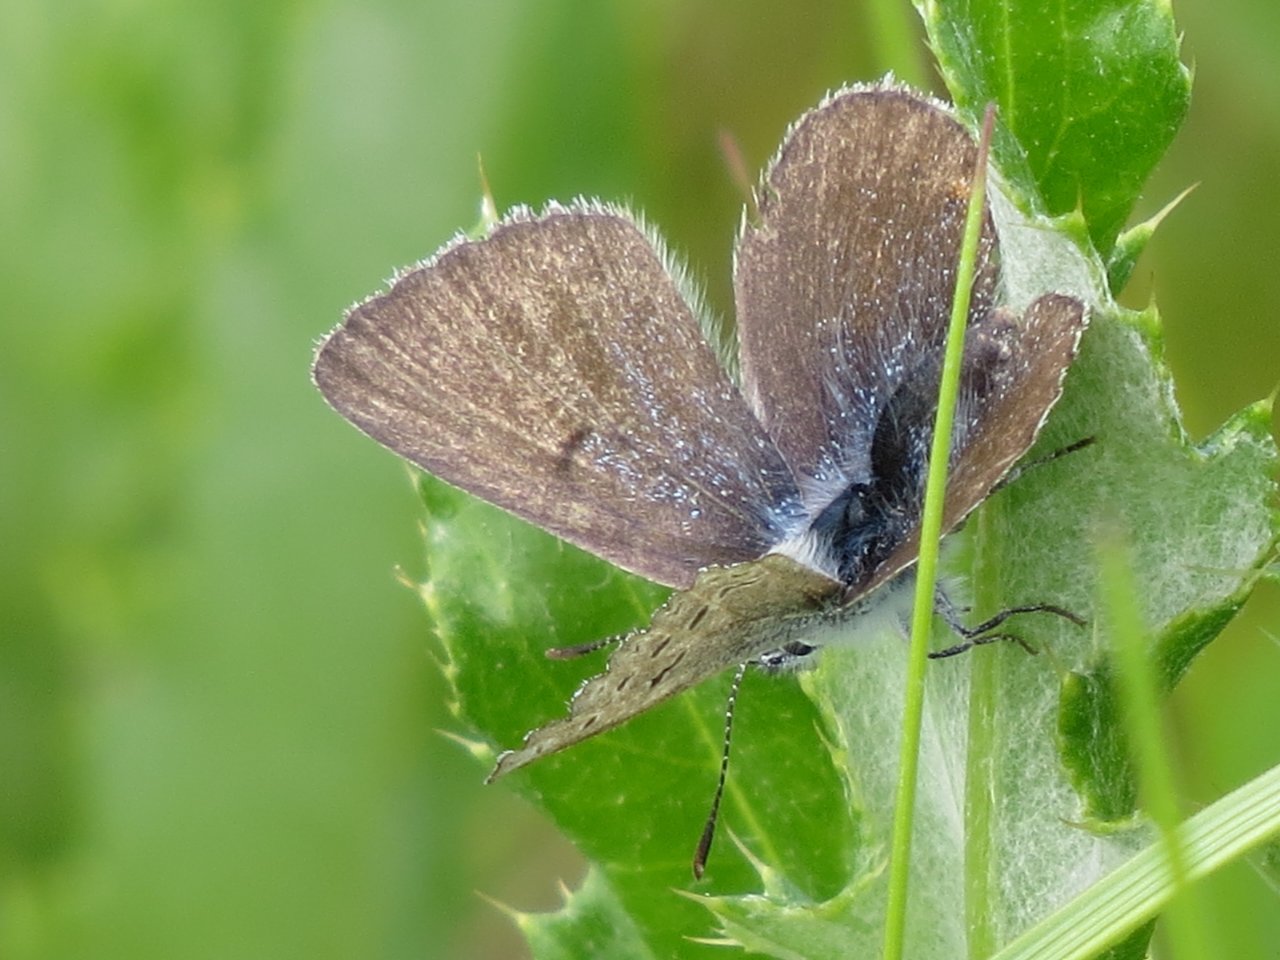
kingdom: Animalia
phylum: Arthropoda
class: Insecta
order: Lepidoptera
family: Lycaenidae
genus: Agriades
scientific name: Agriades glandon
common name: Arctic Blue
